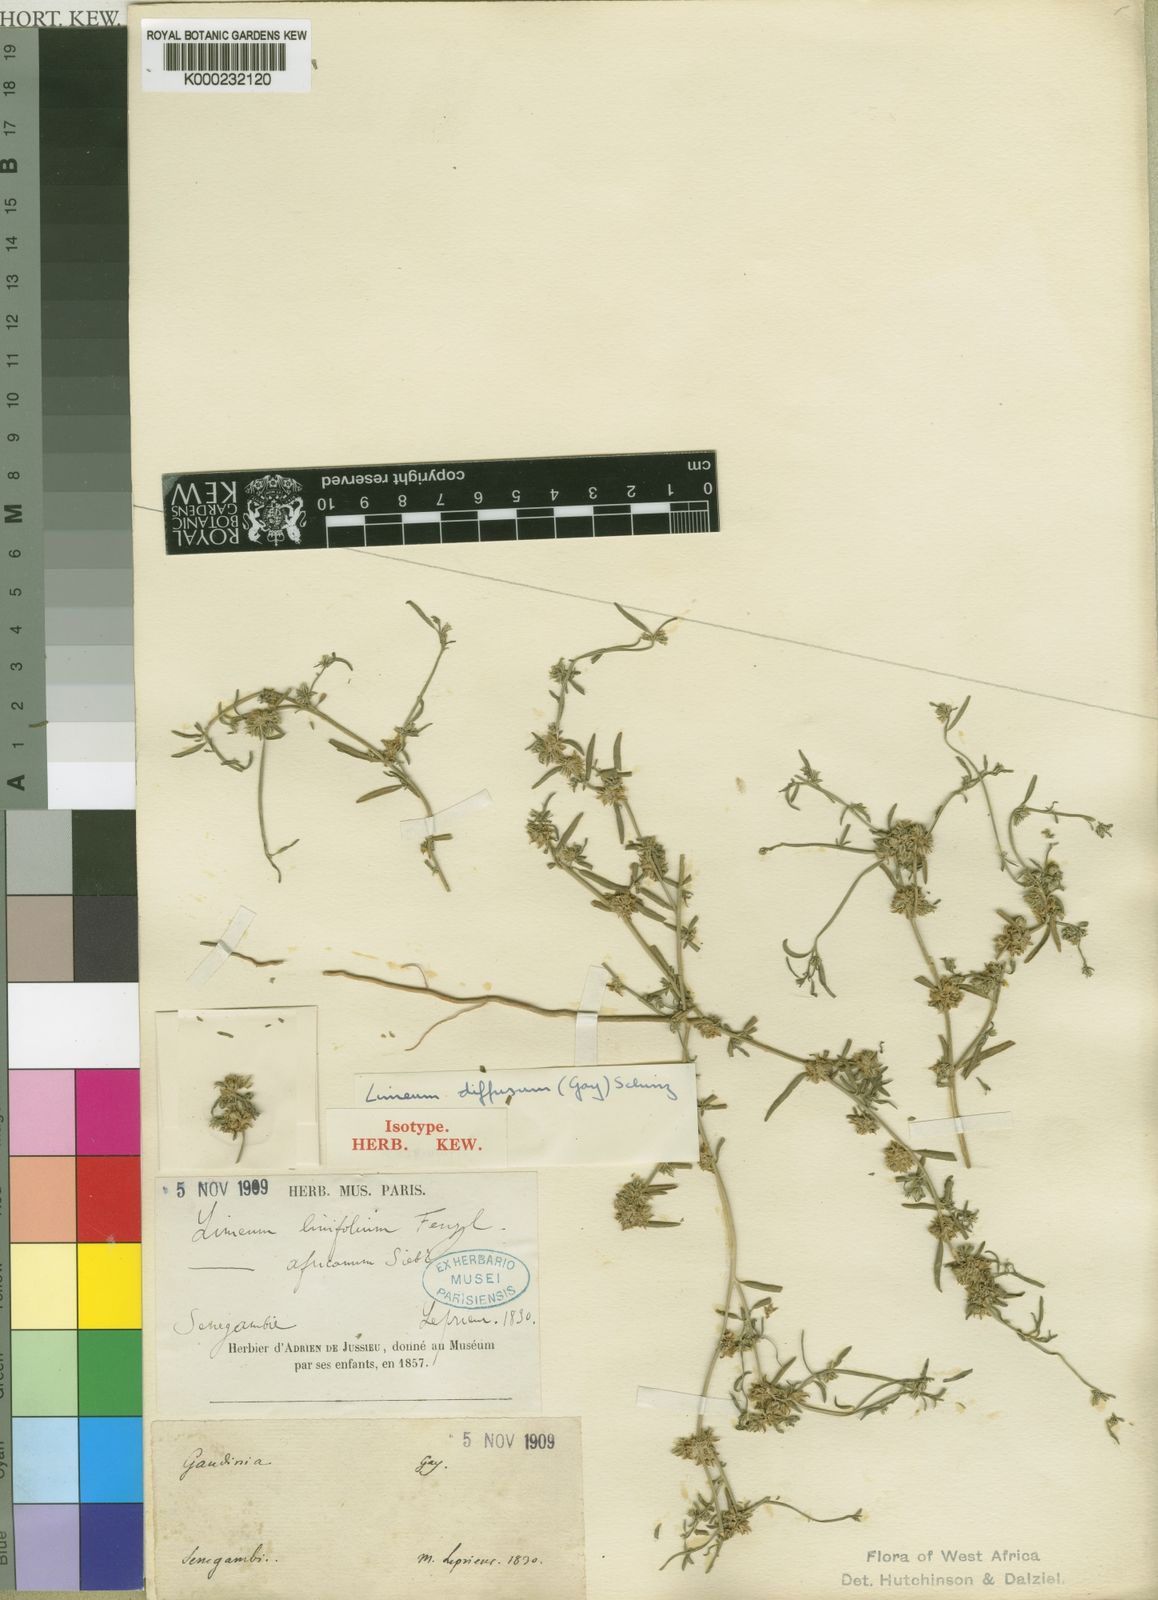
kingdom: Plantae
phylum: Tracheophyta
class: Magnoliopsida
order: Caryophyllales
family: Limeaceae
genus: Limeum
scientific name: Limeum diffusum
